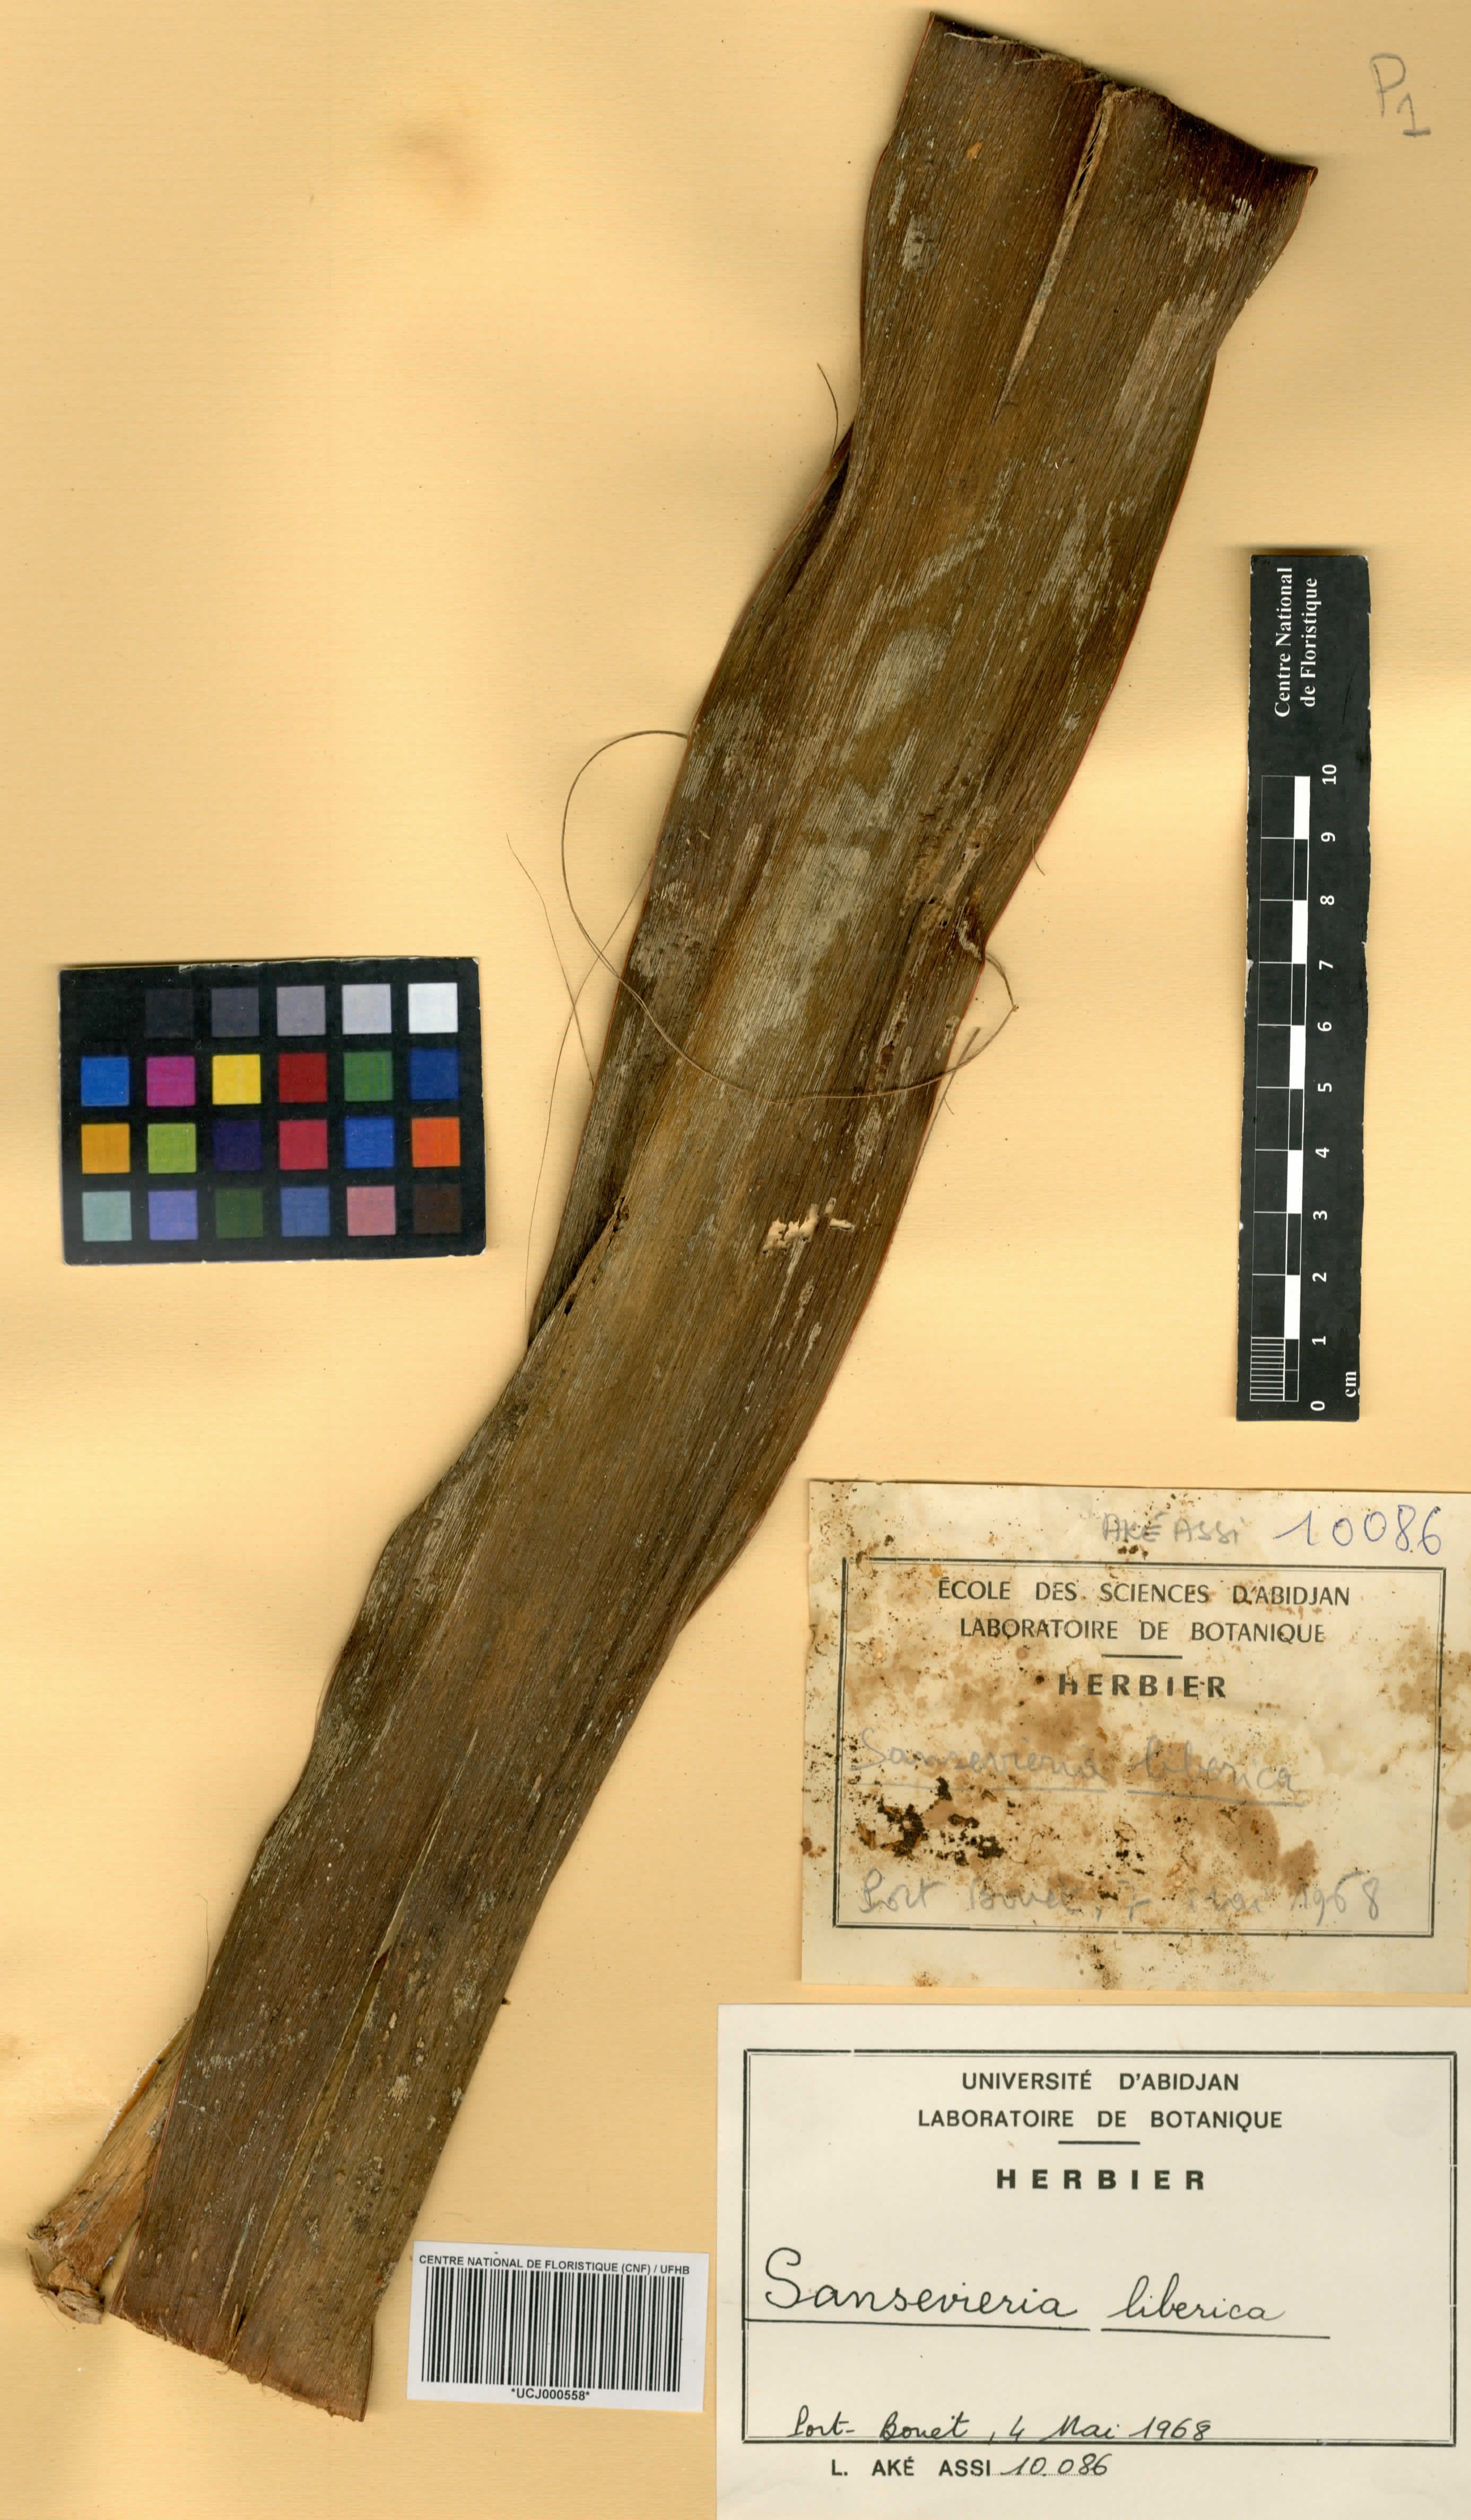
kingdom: Plantae
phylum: Tracheophyta
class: Liliopsida
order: Asparagales
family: Asparagaceae
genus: Dracaena
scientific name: Dracaena liberica
